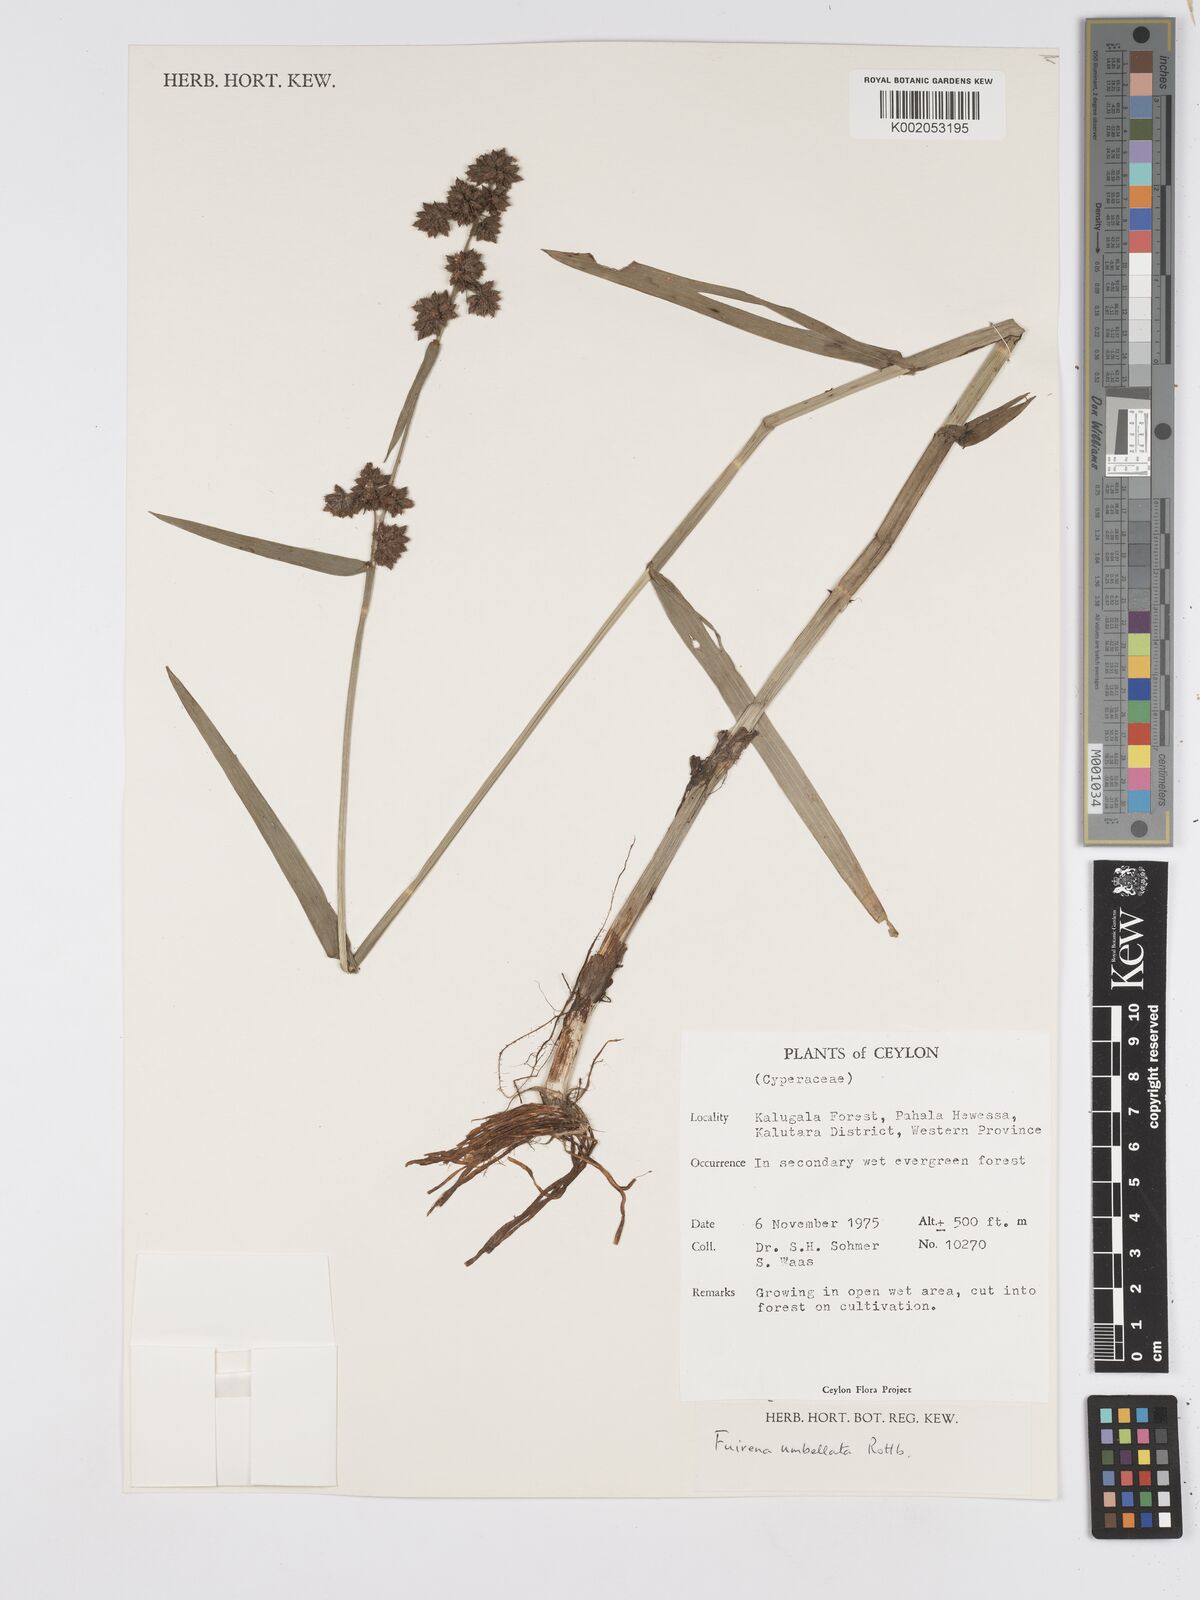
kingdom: Plantae
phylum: Tracheophyta
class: Liliopsida
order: Poales
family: Cyperaceae
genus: Fuirena
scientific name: Fuirena umbellata
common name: Yefen
